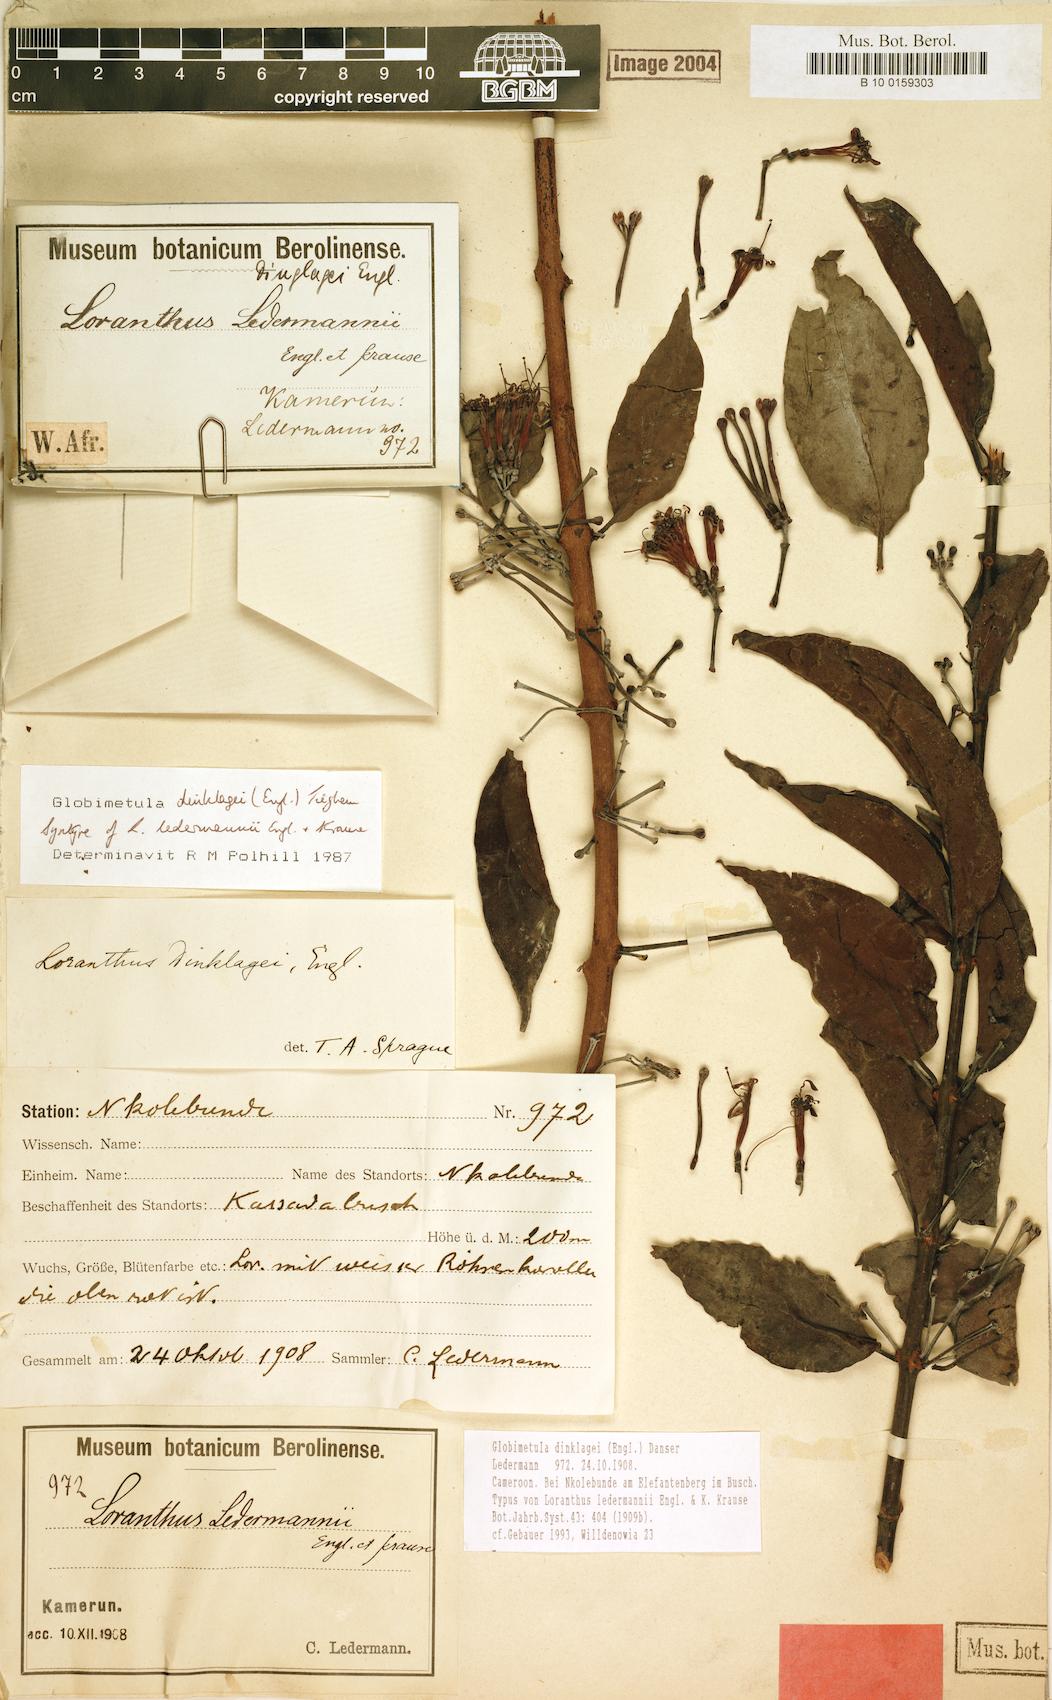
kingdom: Plantae
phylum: Tracheophyta
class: Magnoliopsida
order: Santalales
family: Loranthaceae
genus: Globimetula
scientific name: Globimetula dinklagei
